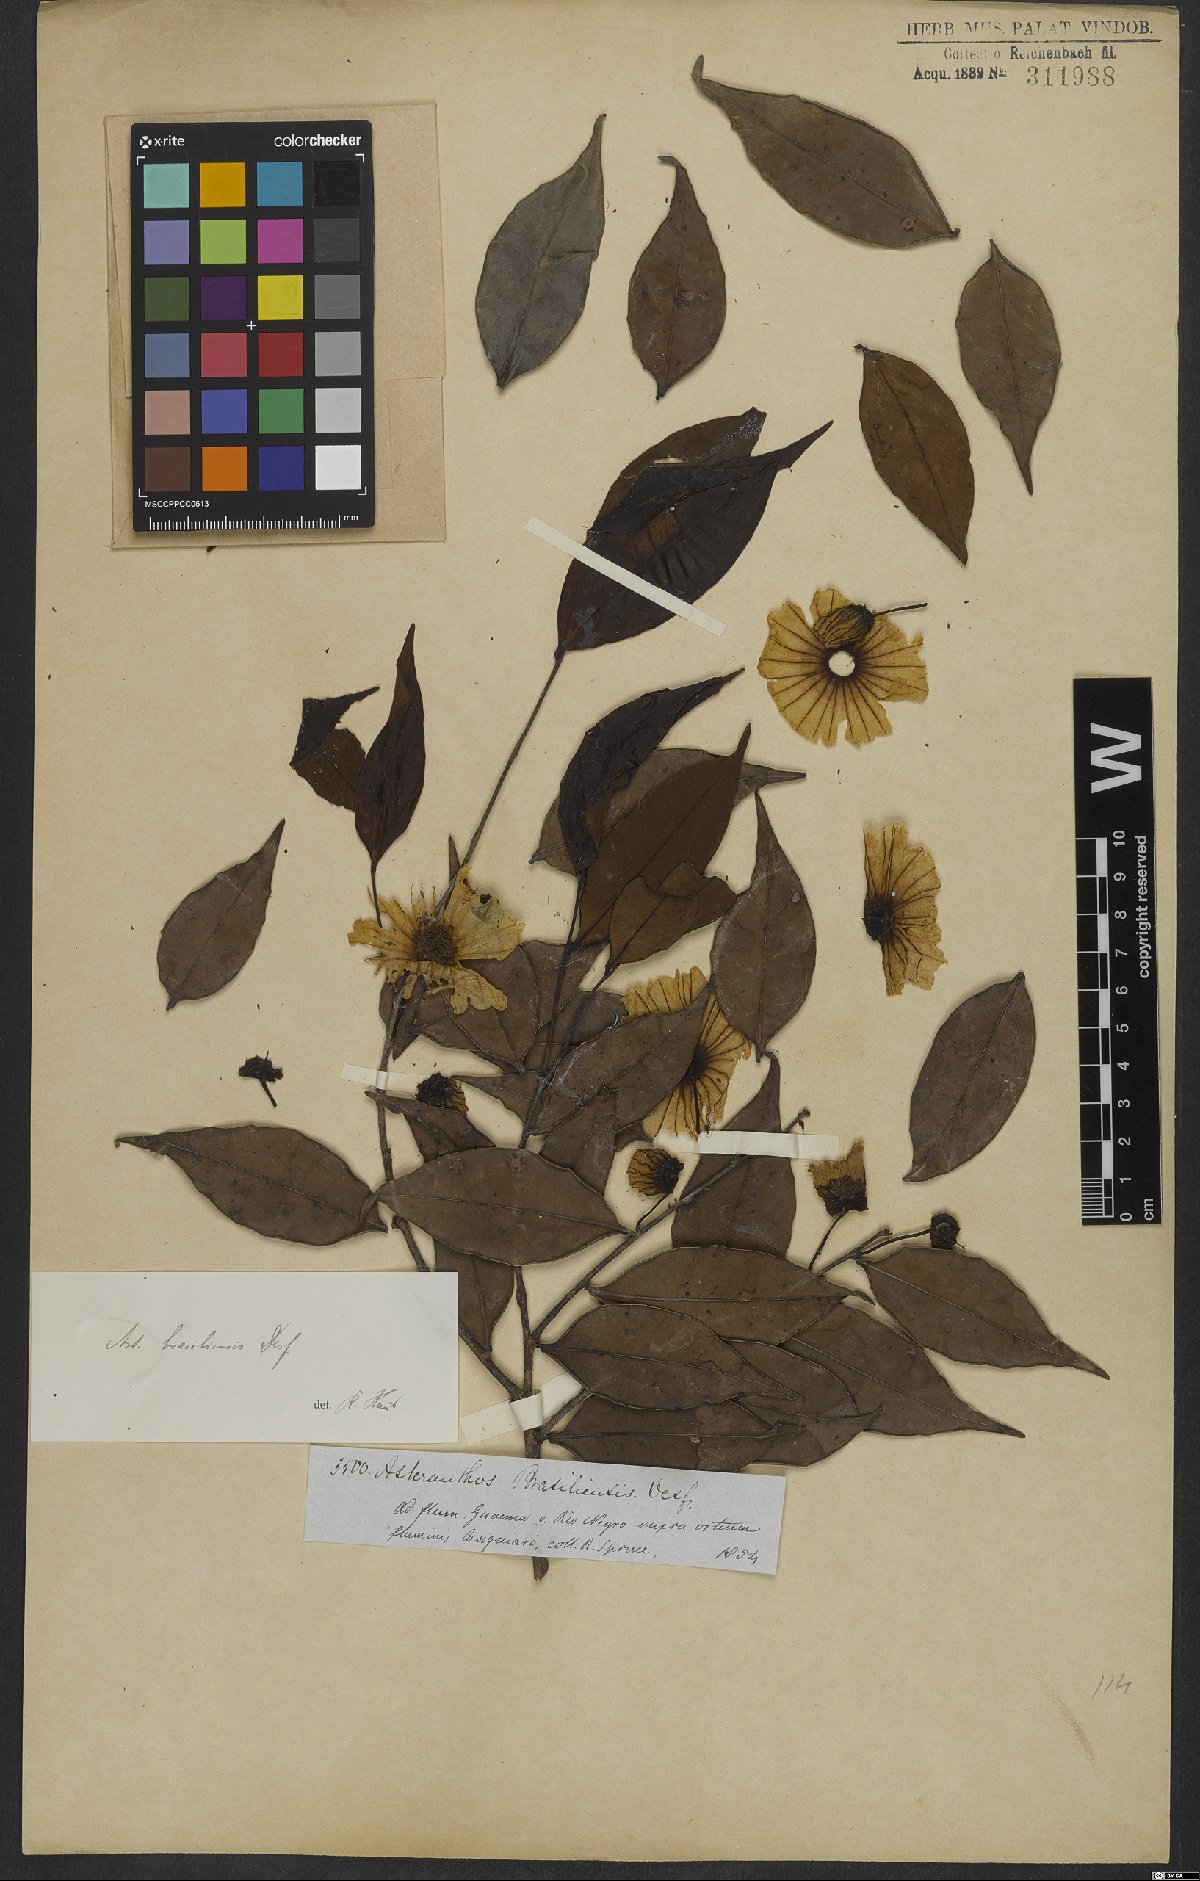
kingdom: Plantae
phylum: Tracheophyta
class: Magnoliopsida
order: Ericales
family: Lecythidaceae
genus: Asteranthos
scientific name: Asteranthos brasiliensis
